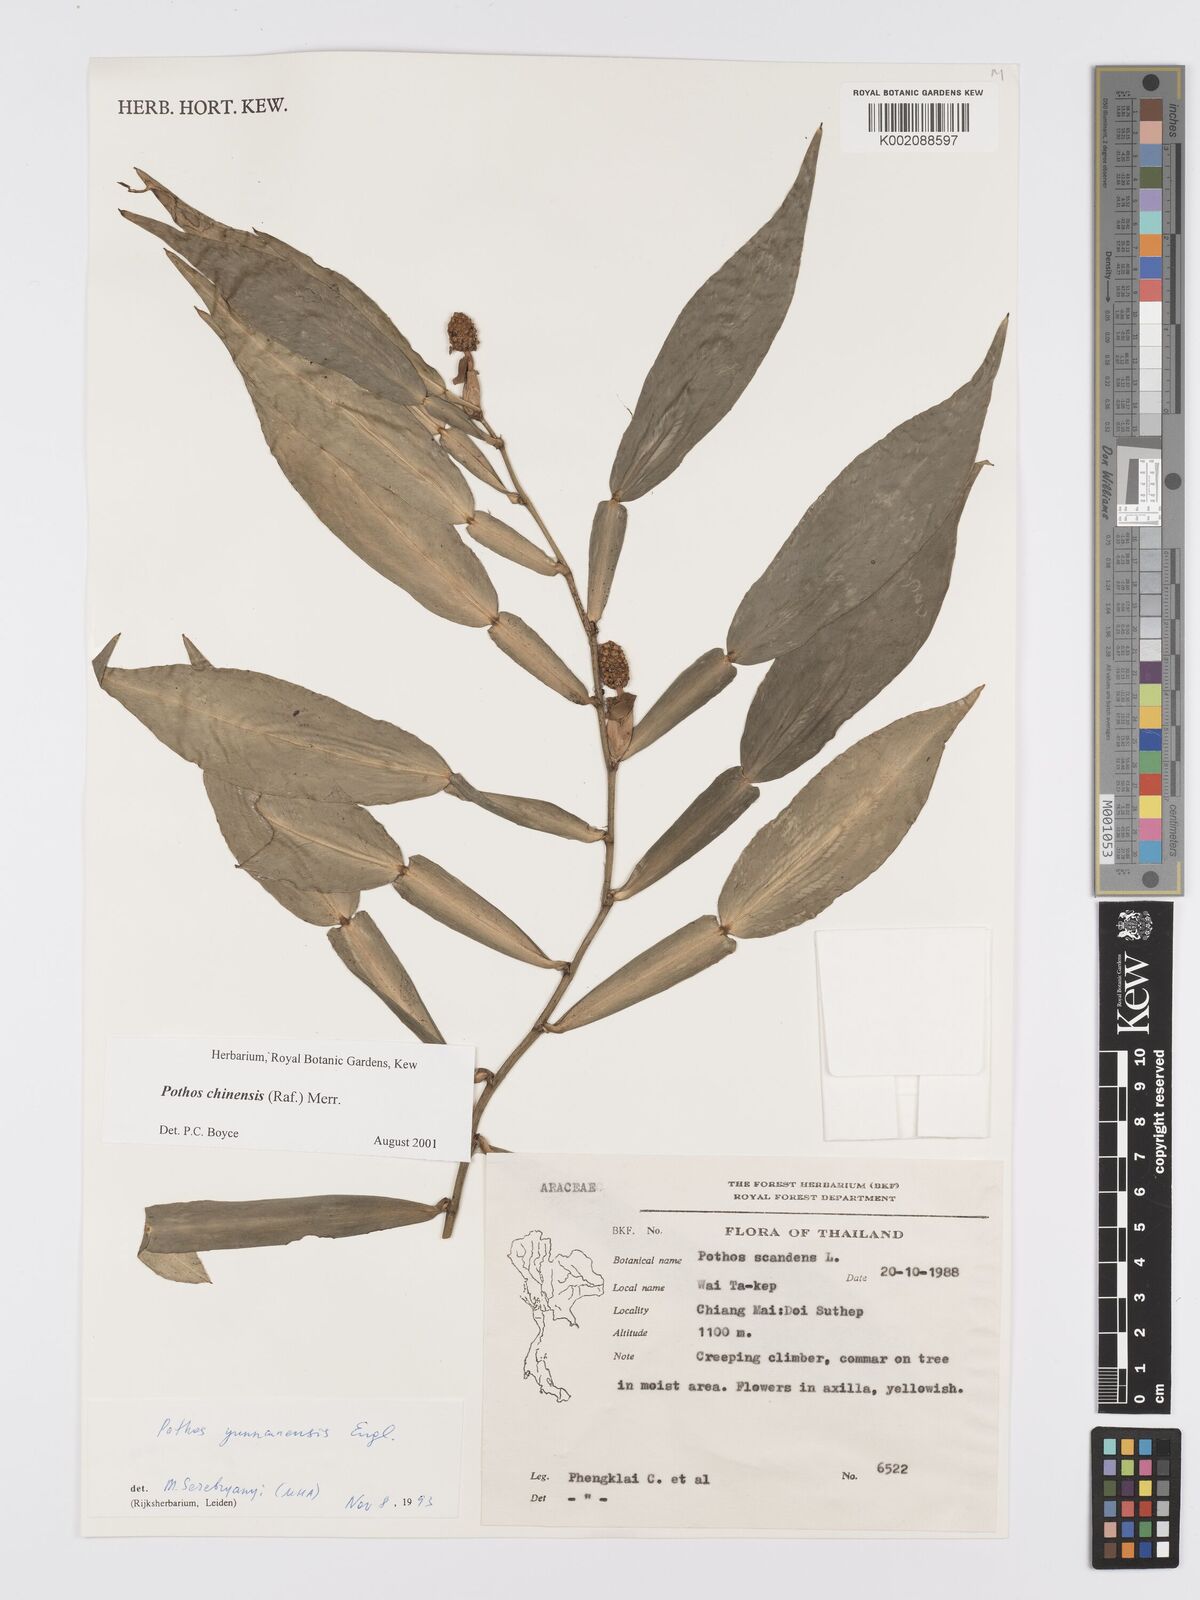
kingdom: Plantae
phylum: Tracheophyta
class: Liliopsida
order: Alismatales
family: Araceae
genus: Pothos
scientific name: Pothos chinensis
